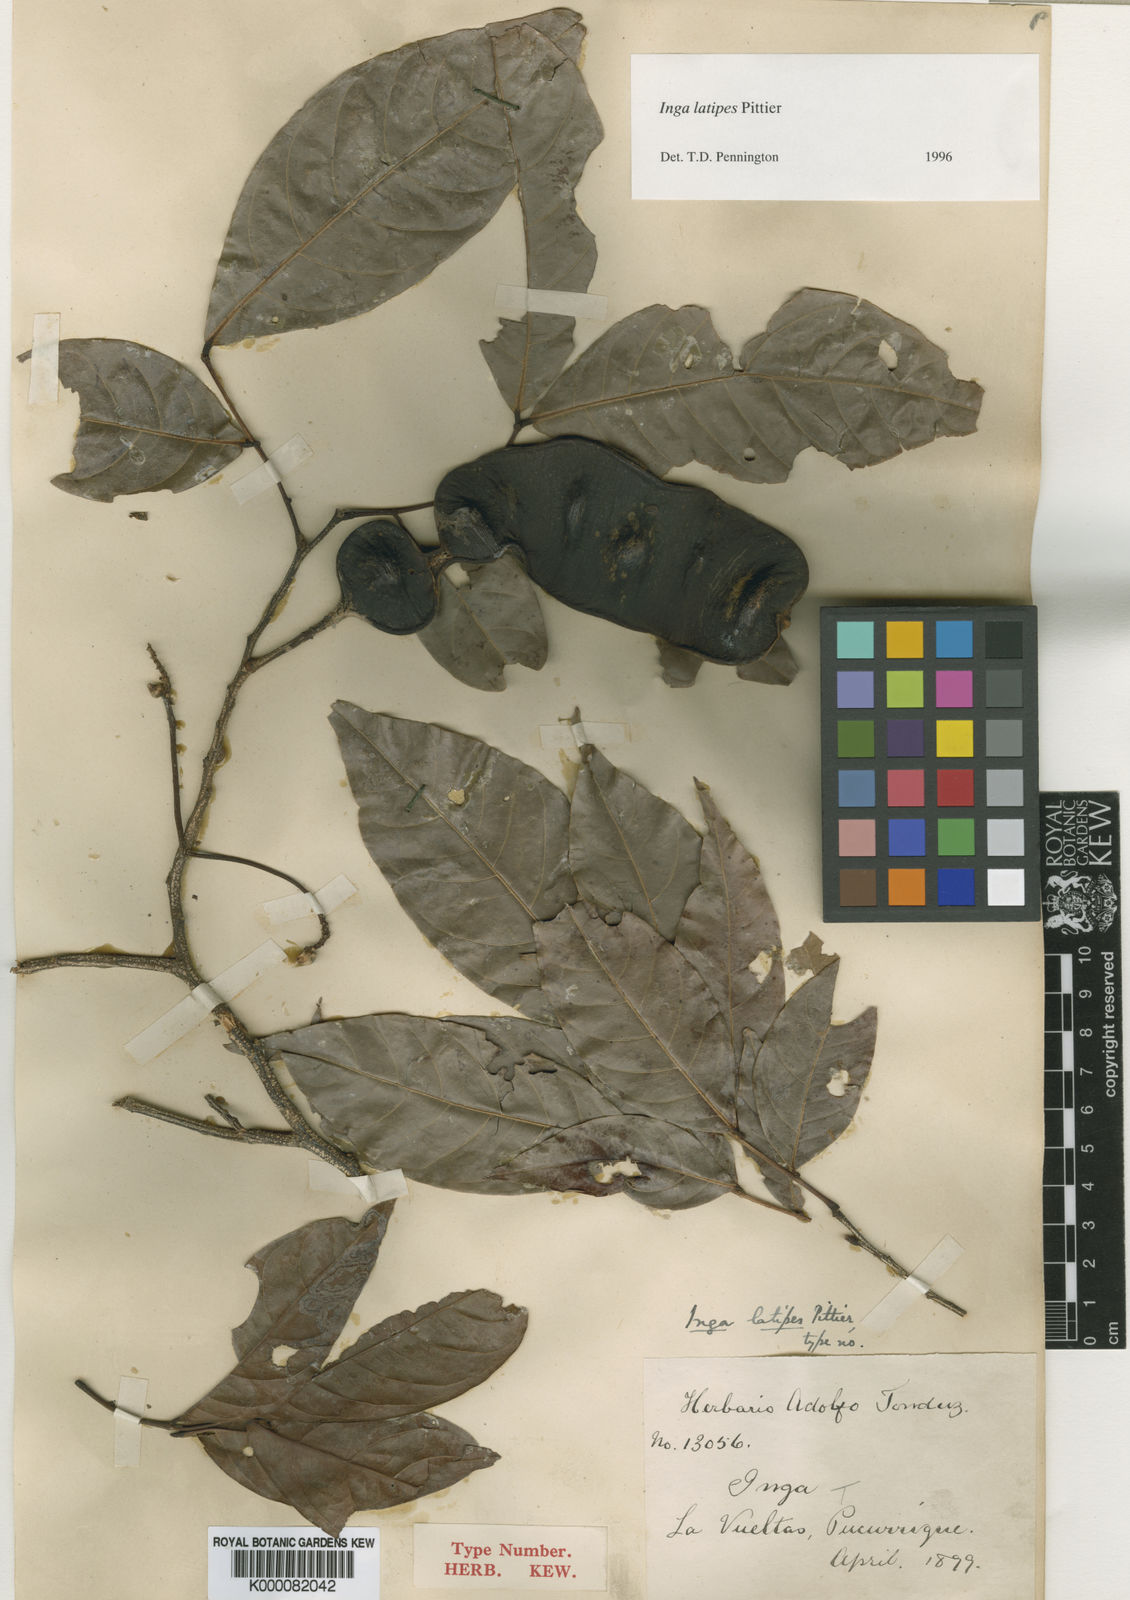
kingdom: Plantae
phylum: Tracheophyta
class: Magnoliopsida
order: Fabales
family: Fabaceae
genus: Inga
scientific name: Inga latipes
